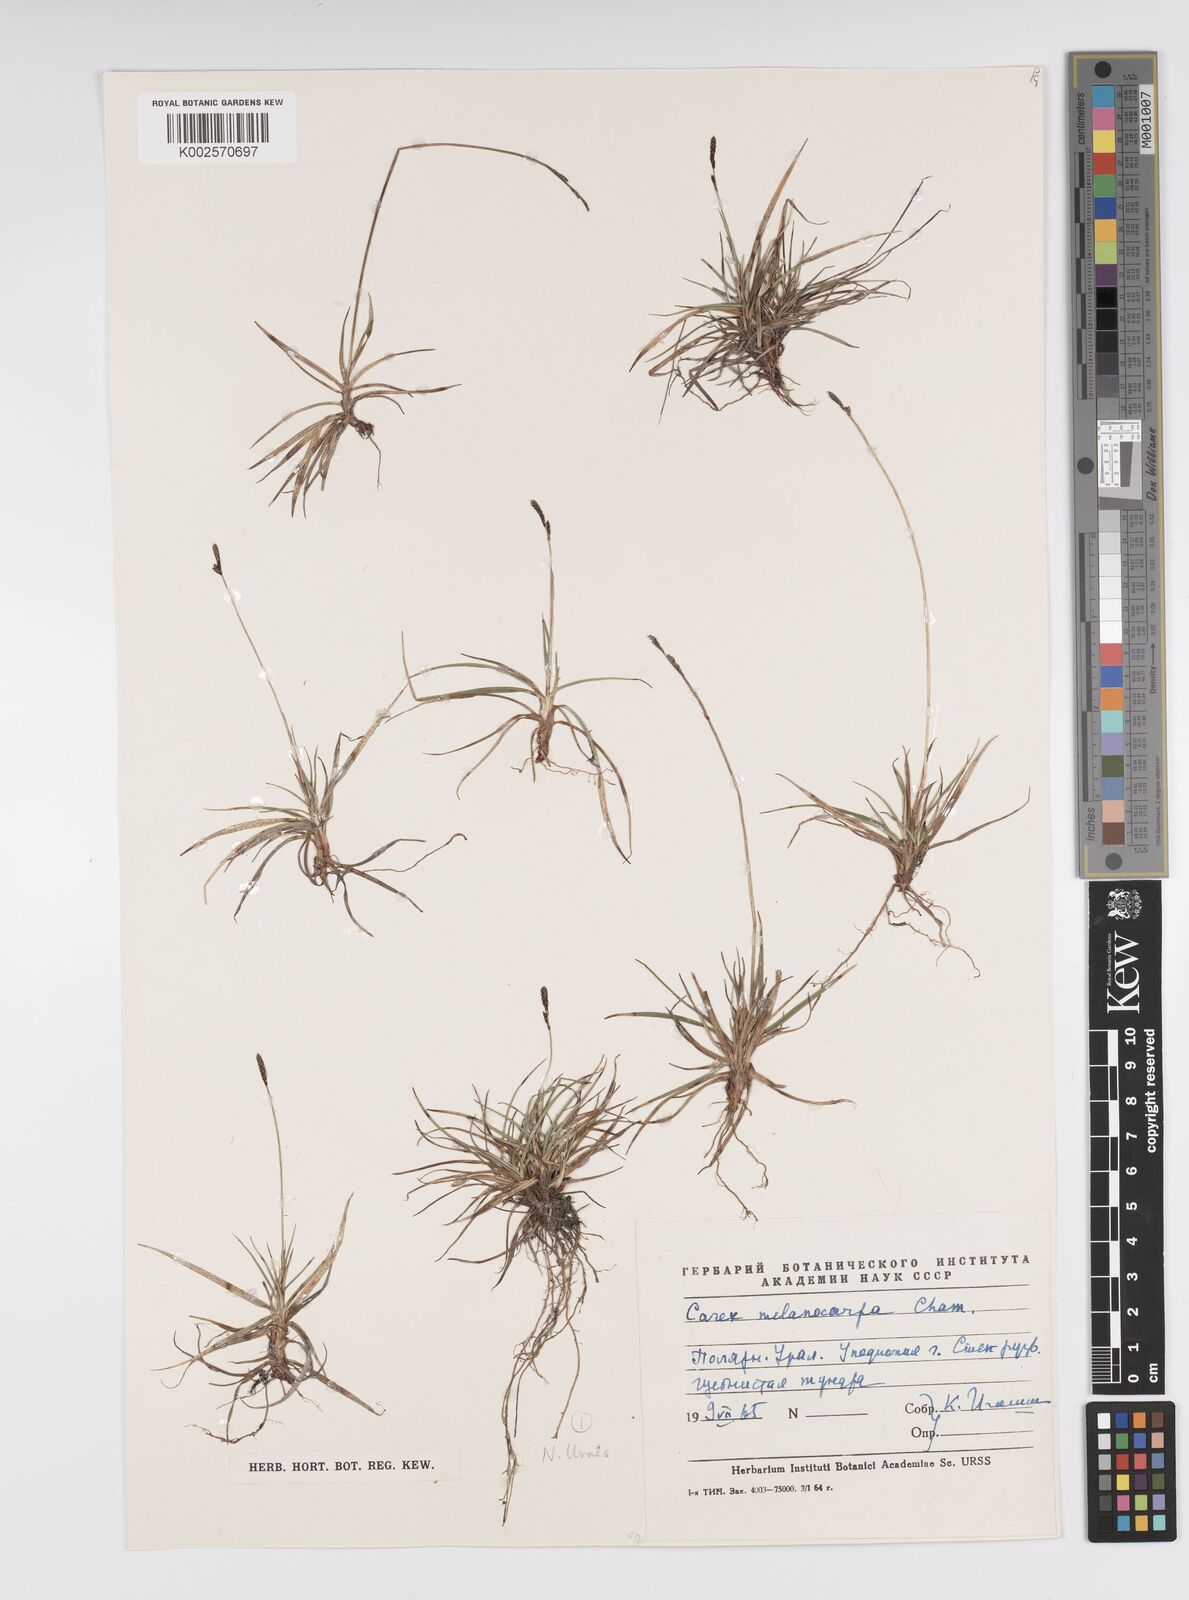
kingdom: Plantae
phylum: Tracheophyta
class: Liliopsida
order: Poales
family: Cyperaceae
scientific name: Cyperaceae
